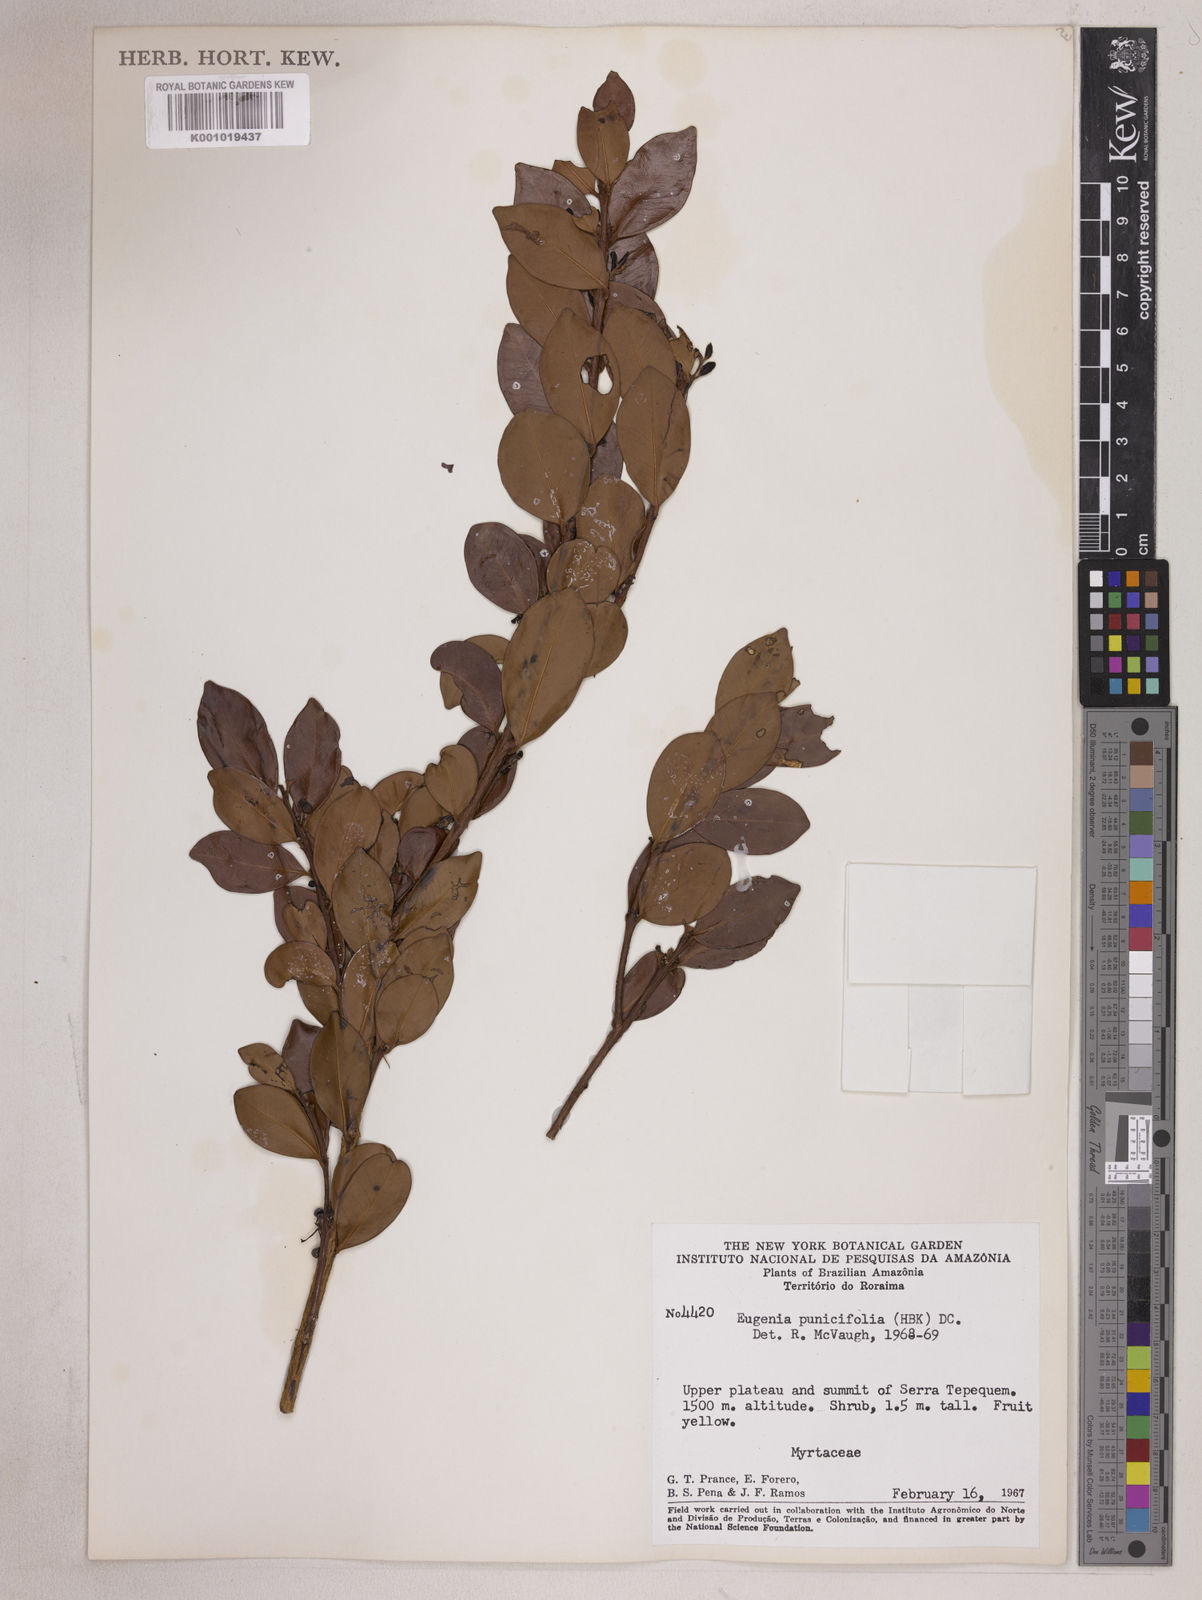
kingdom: Plantae
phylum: Tracheophyta
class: Magnoliopsida
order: Myrtales
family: Myrtaceae
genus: Eugenia
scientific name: Eugenia punicifolia
